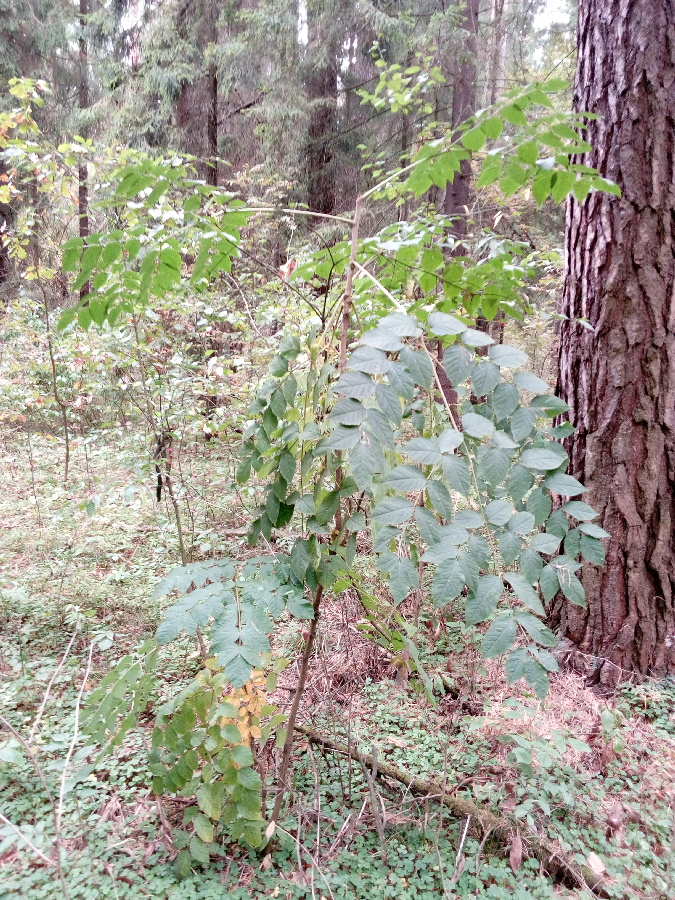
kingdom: Plantae
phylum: Tracheophyta
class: Magnoliopsida
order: Apiales
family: Araliaceae
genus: Aralia
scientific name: Aralia elata
